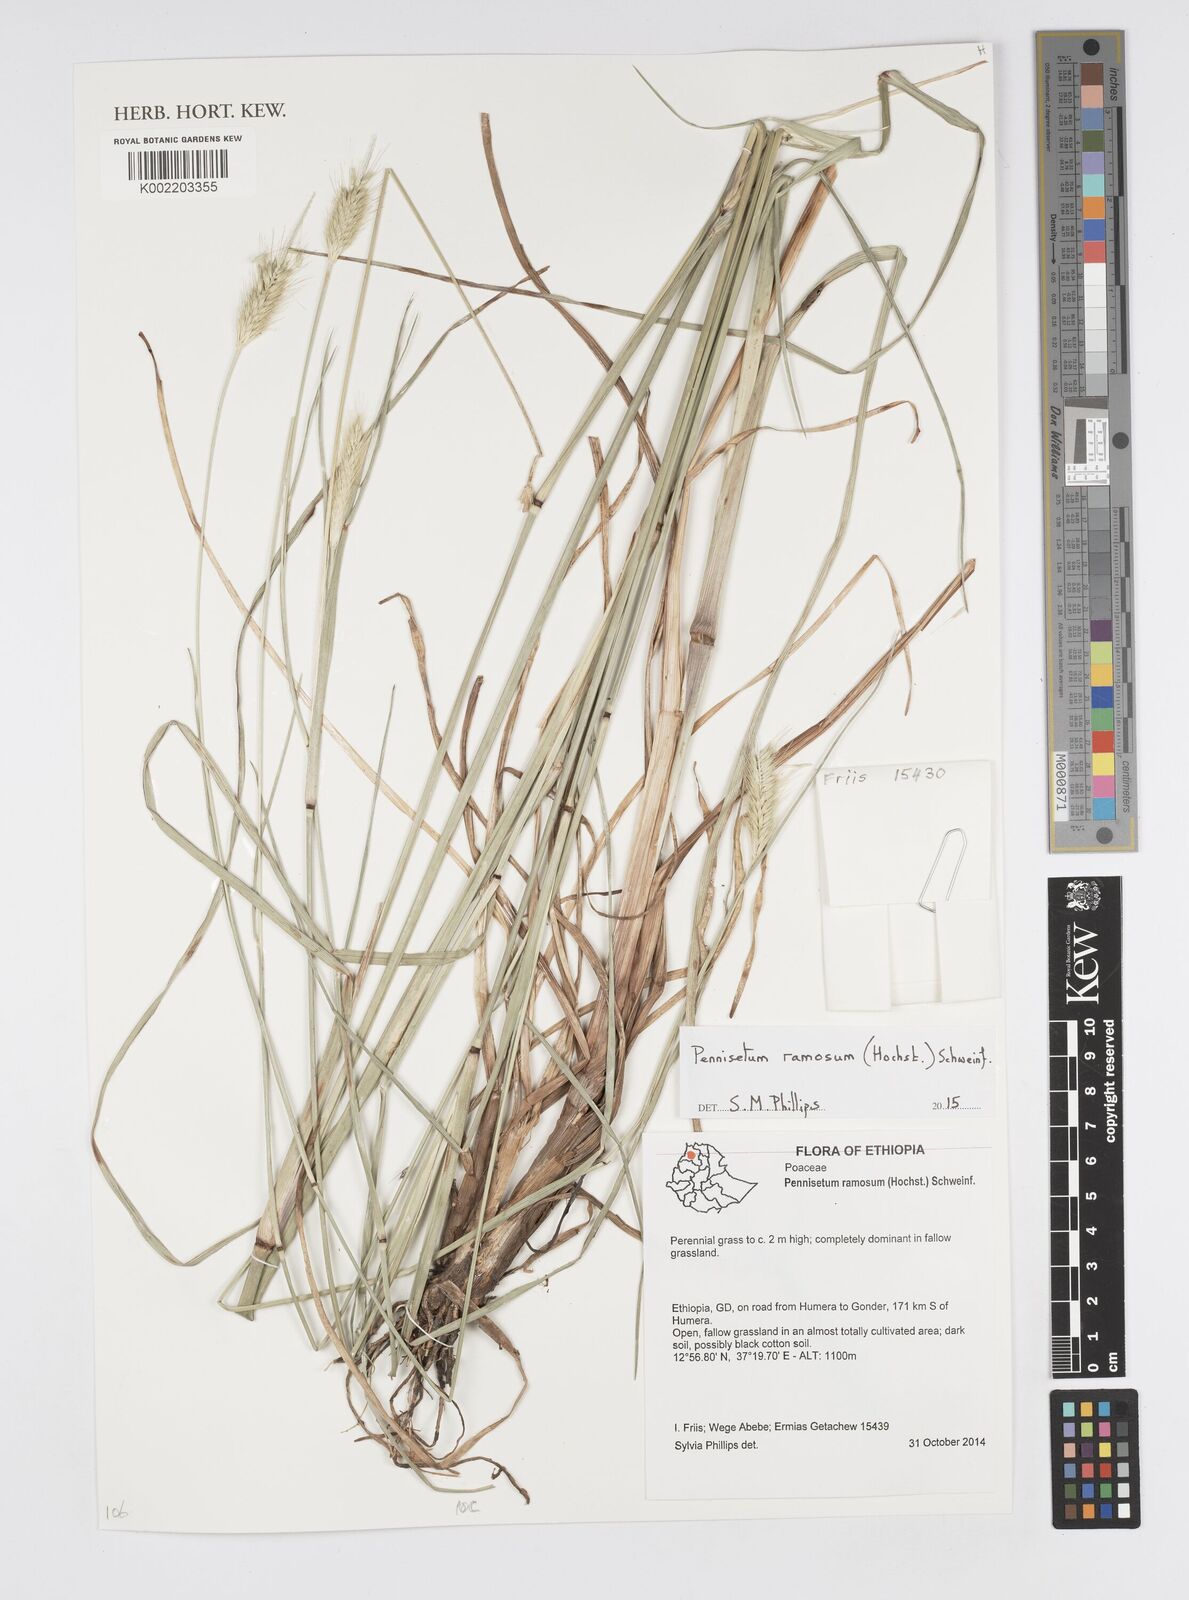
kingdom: Plantae
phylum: Tracheophyta
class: Liliopsida
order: Poales
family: Poaceae
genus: Cenchrus
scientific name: Cenchrus ramosus
